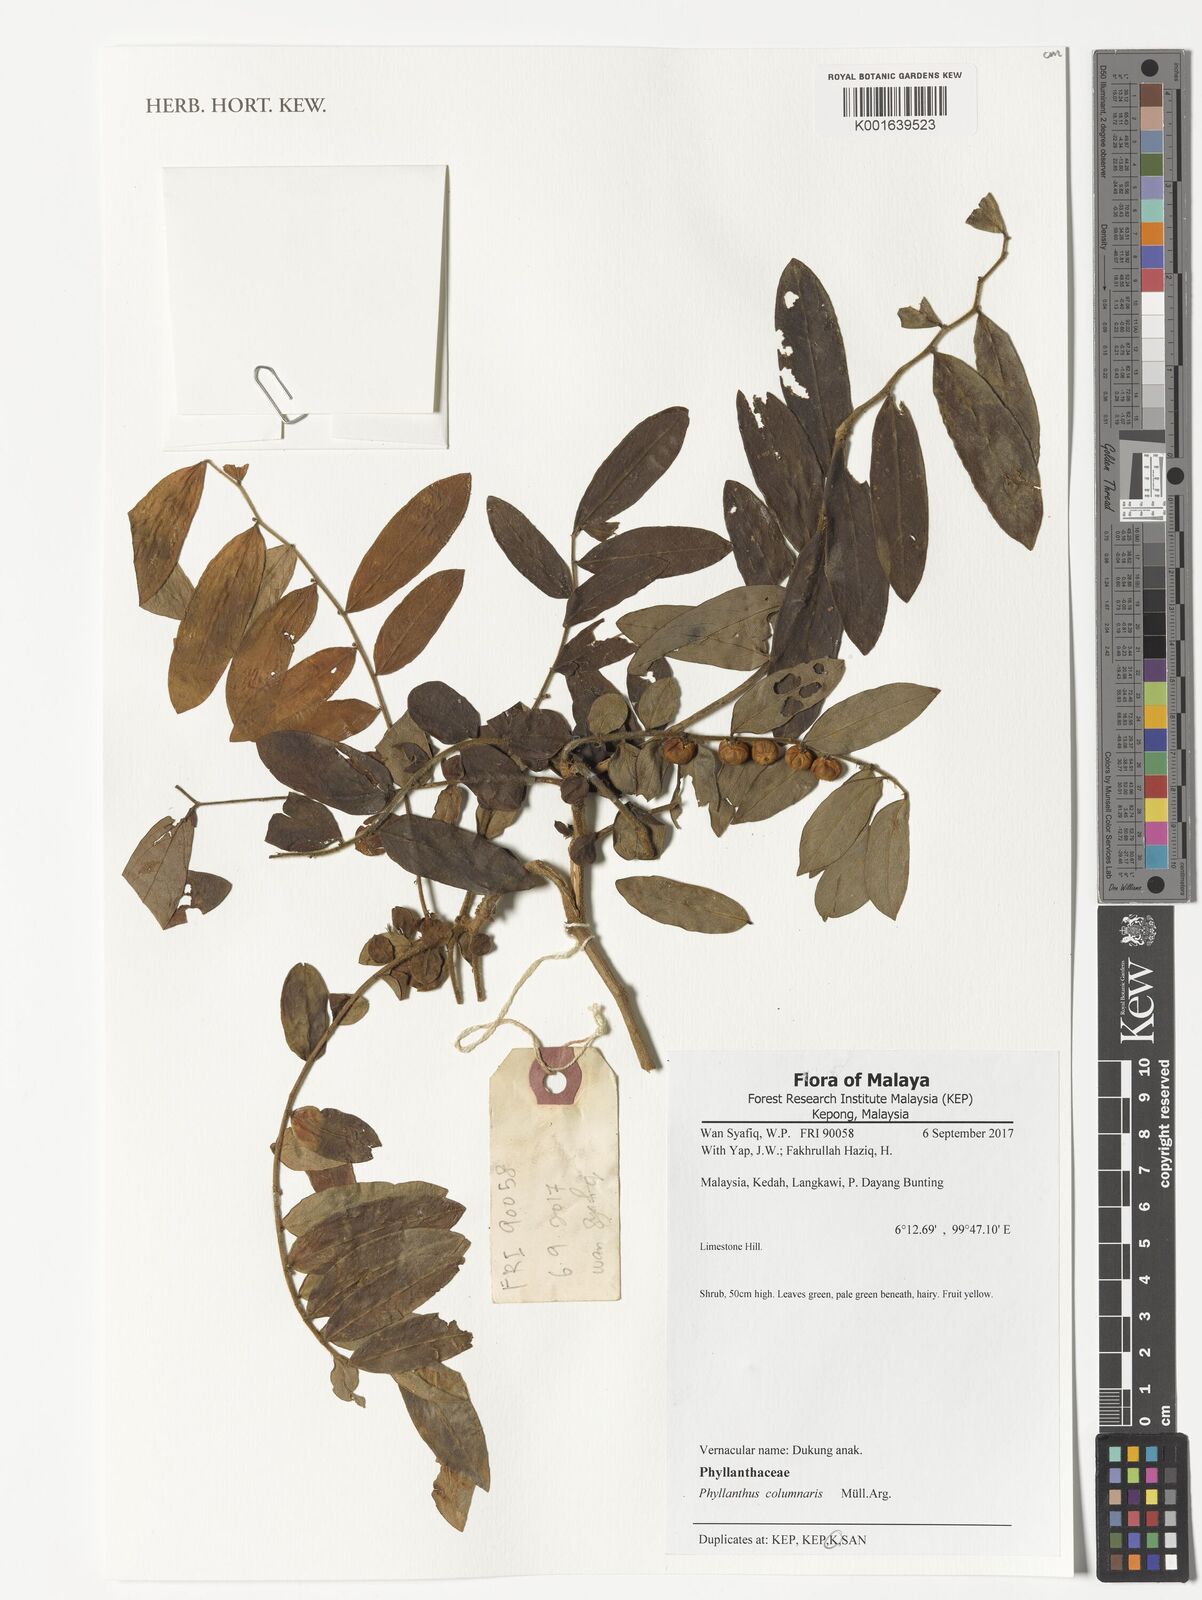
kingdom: Plantae
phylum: Tracheophyta
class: Magnoliopsida
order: Malpighiales
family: Phyllanthaceae
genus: Phyllanthus
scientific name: Phyllanthus columnaris
